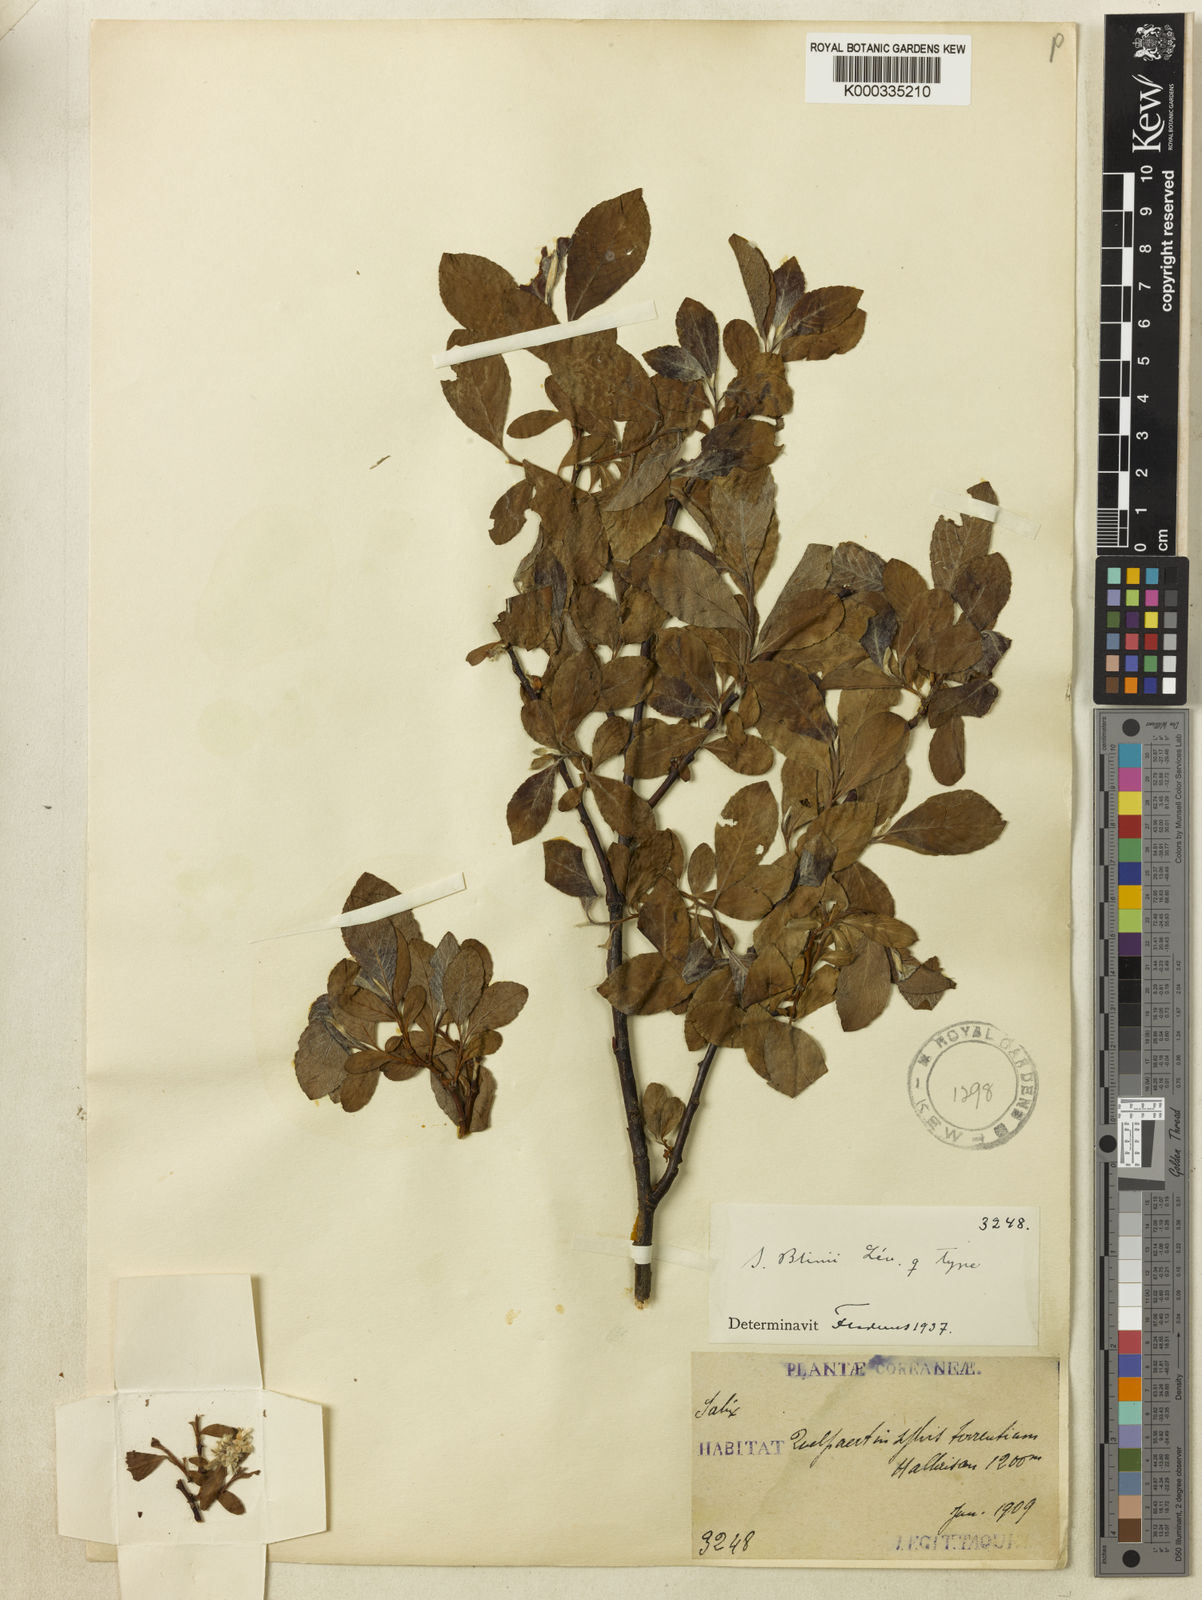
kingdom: Plantae
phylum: Tracheophyta
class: Magnoliopsida
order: Malpighiales
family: Salicaceae
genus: Salix
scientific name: Salix
